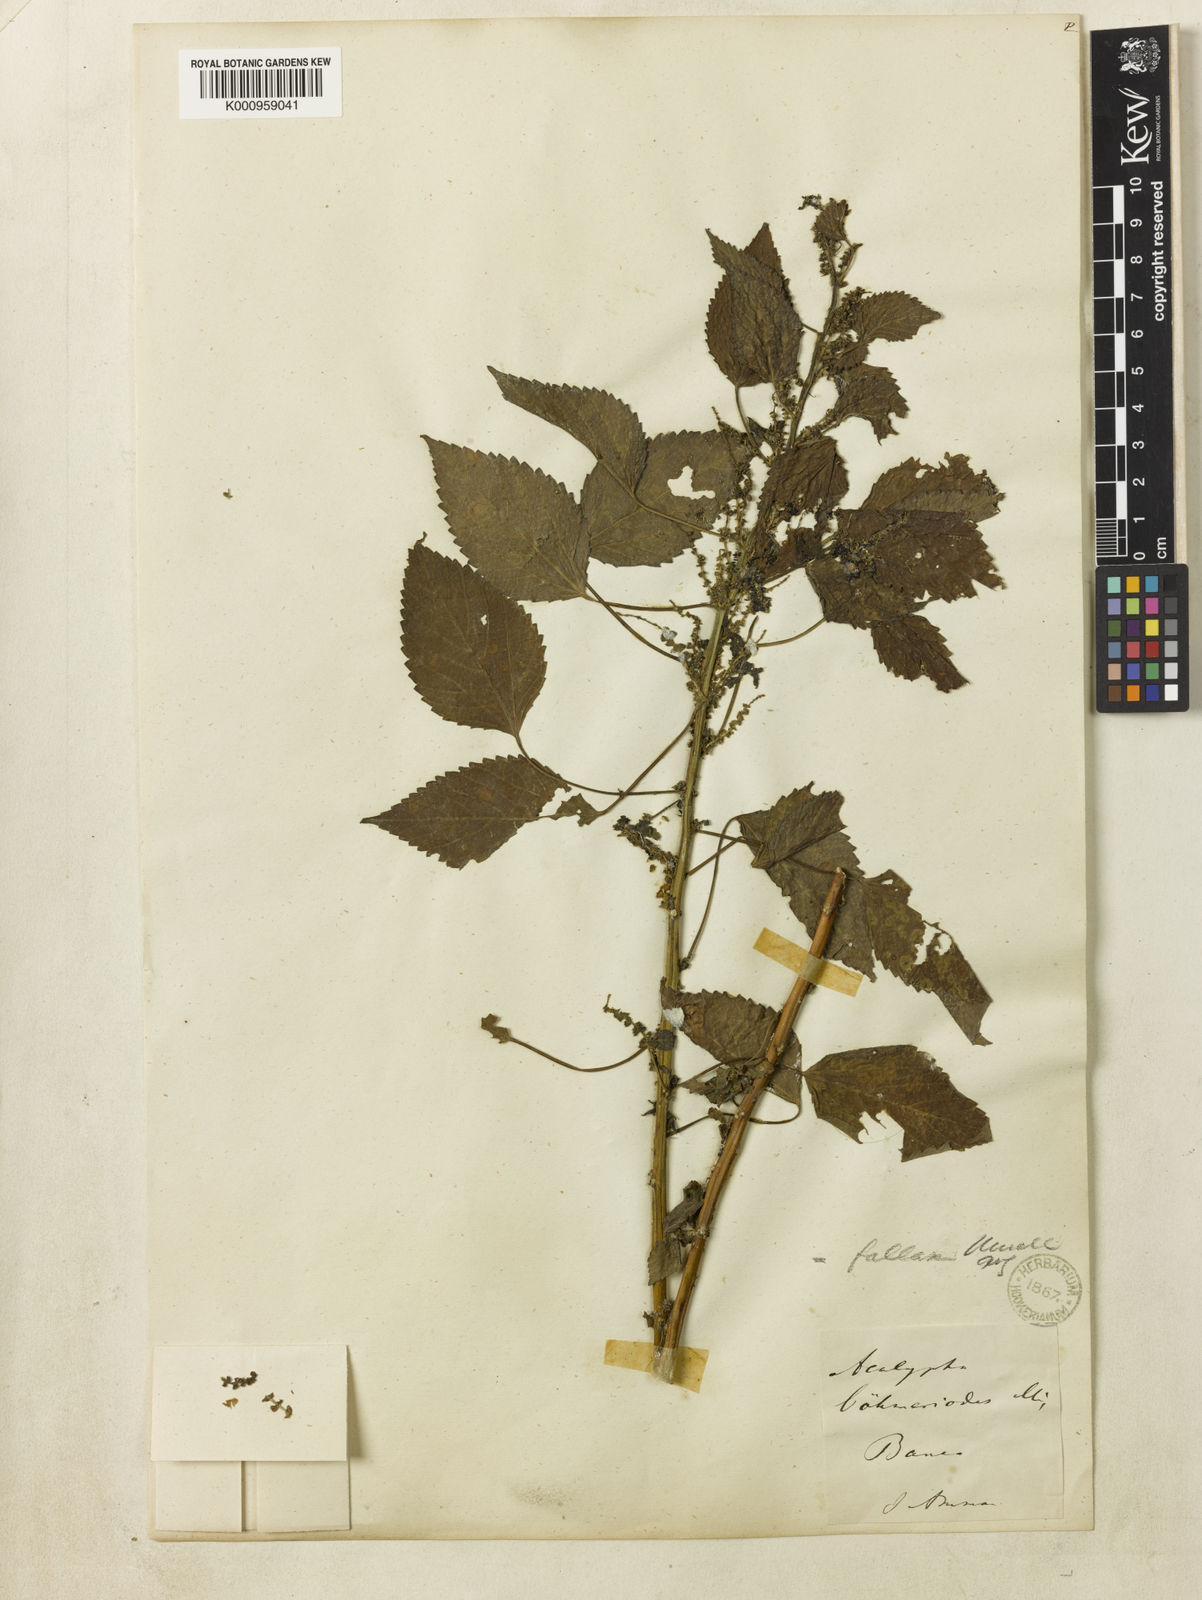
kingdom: Plantae
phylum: Tracheophyta
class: Magnoliopsida
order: Malpighiales
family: Euphorbiaceae
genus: Acalypha
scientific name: Acalypha
